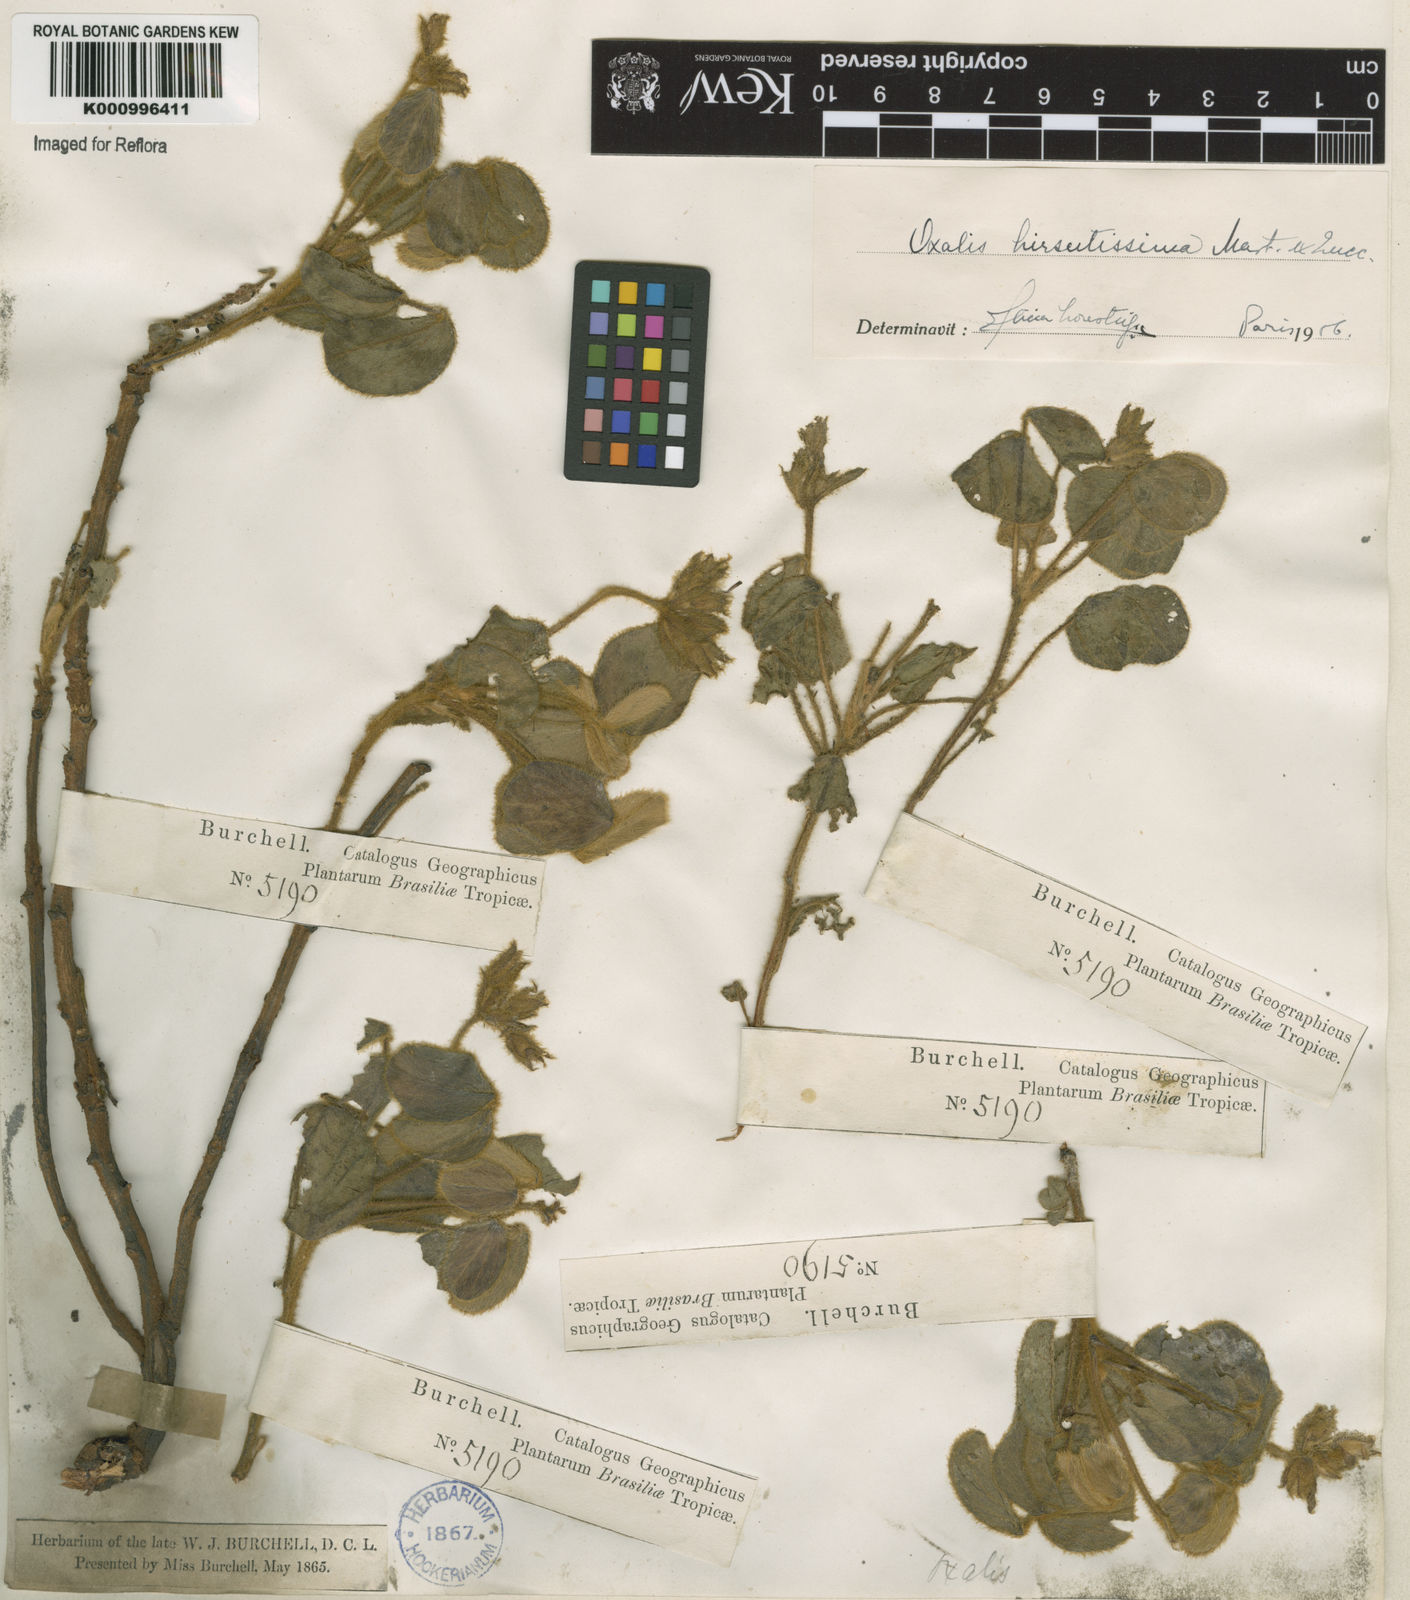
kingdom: Plantae
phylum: Tracheophyta
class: Magnoliopsida
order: Oxalidales
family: Oxalidaceae
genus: Oxalis
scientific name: Oxalis hirsutissima
